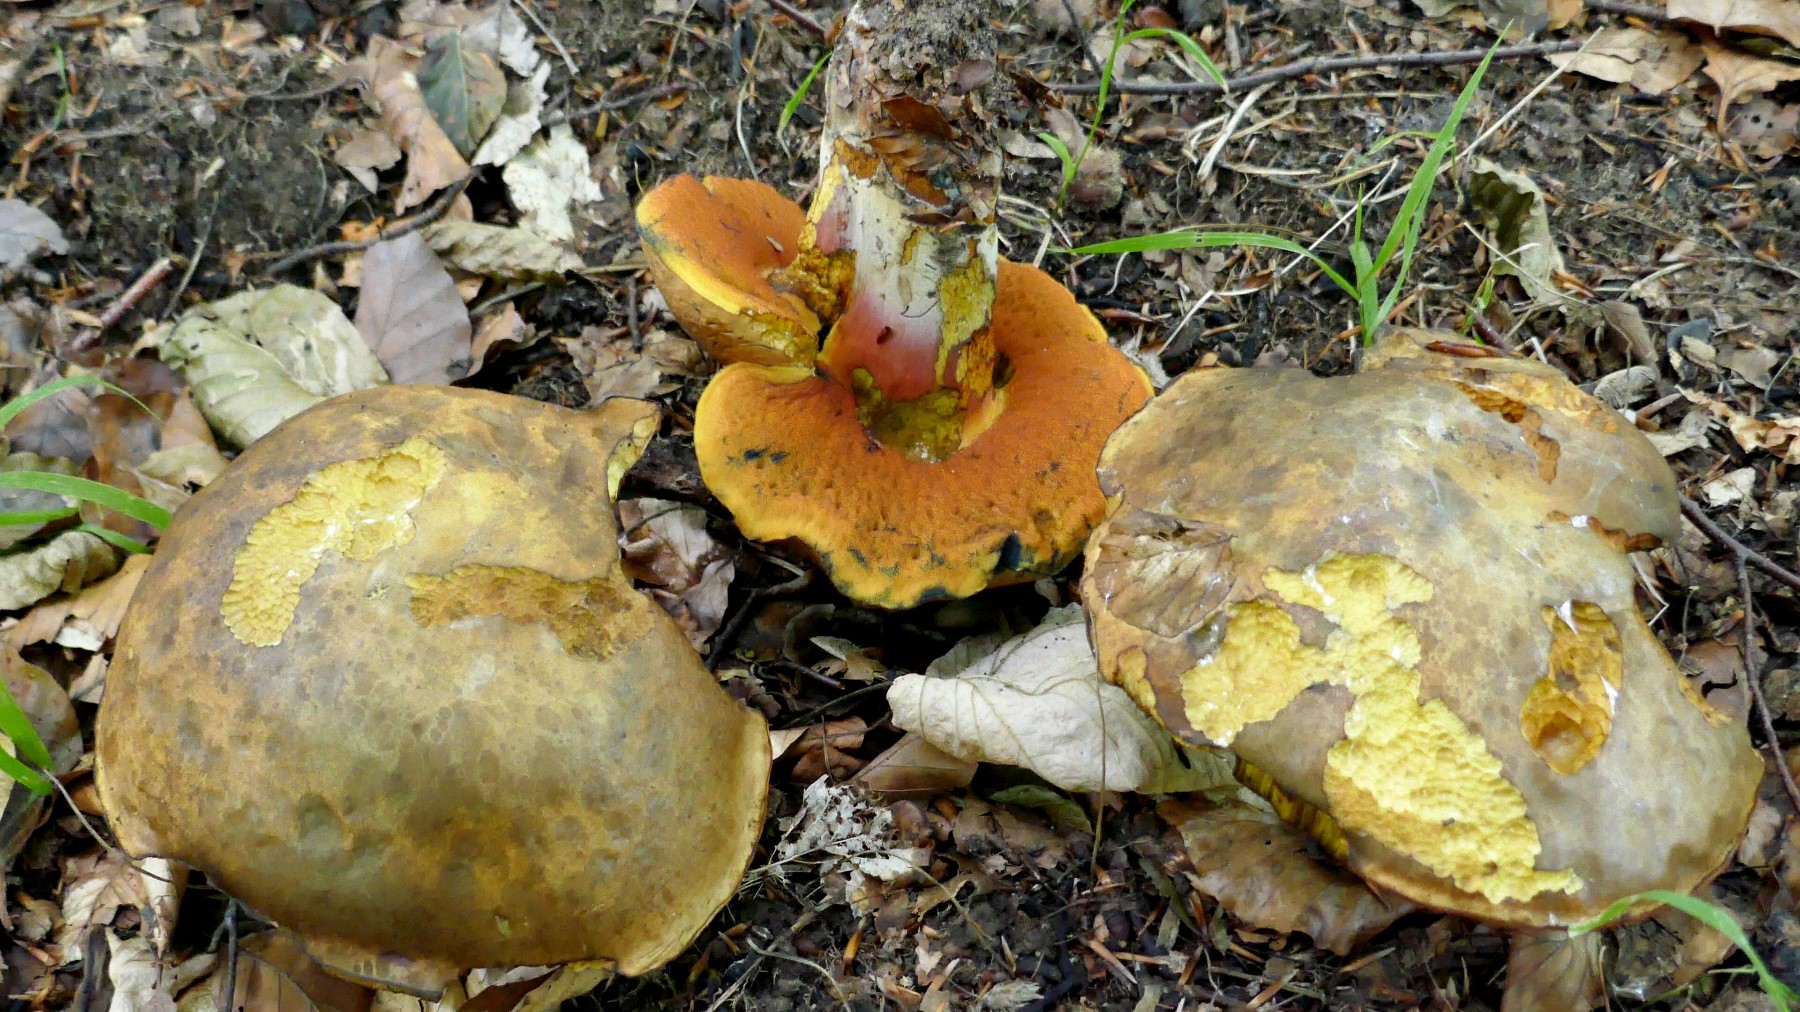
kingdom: Fungi
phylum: Basidiomycota
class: Agaricomycetes
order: Boletales
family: Boletaceae
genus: Neoboletus
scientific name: Neoboletus erythropus
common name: punktstokket indigorørhat
